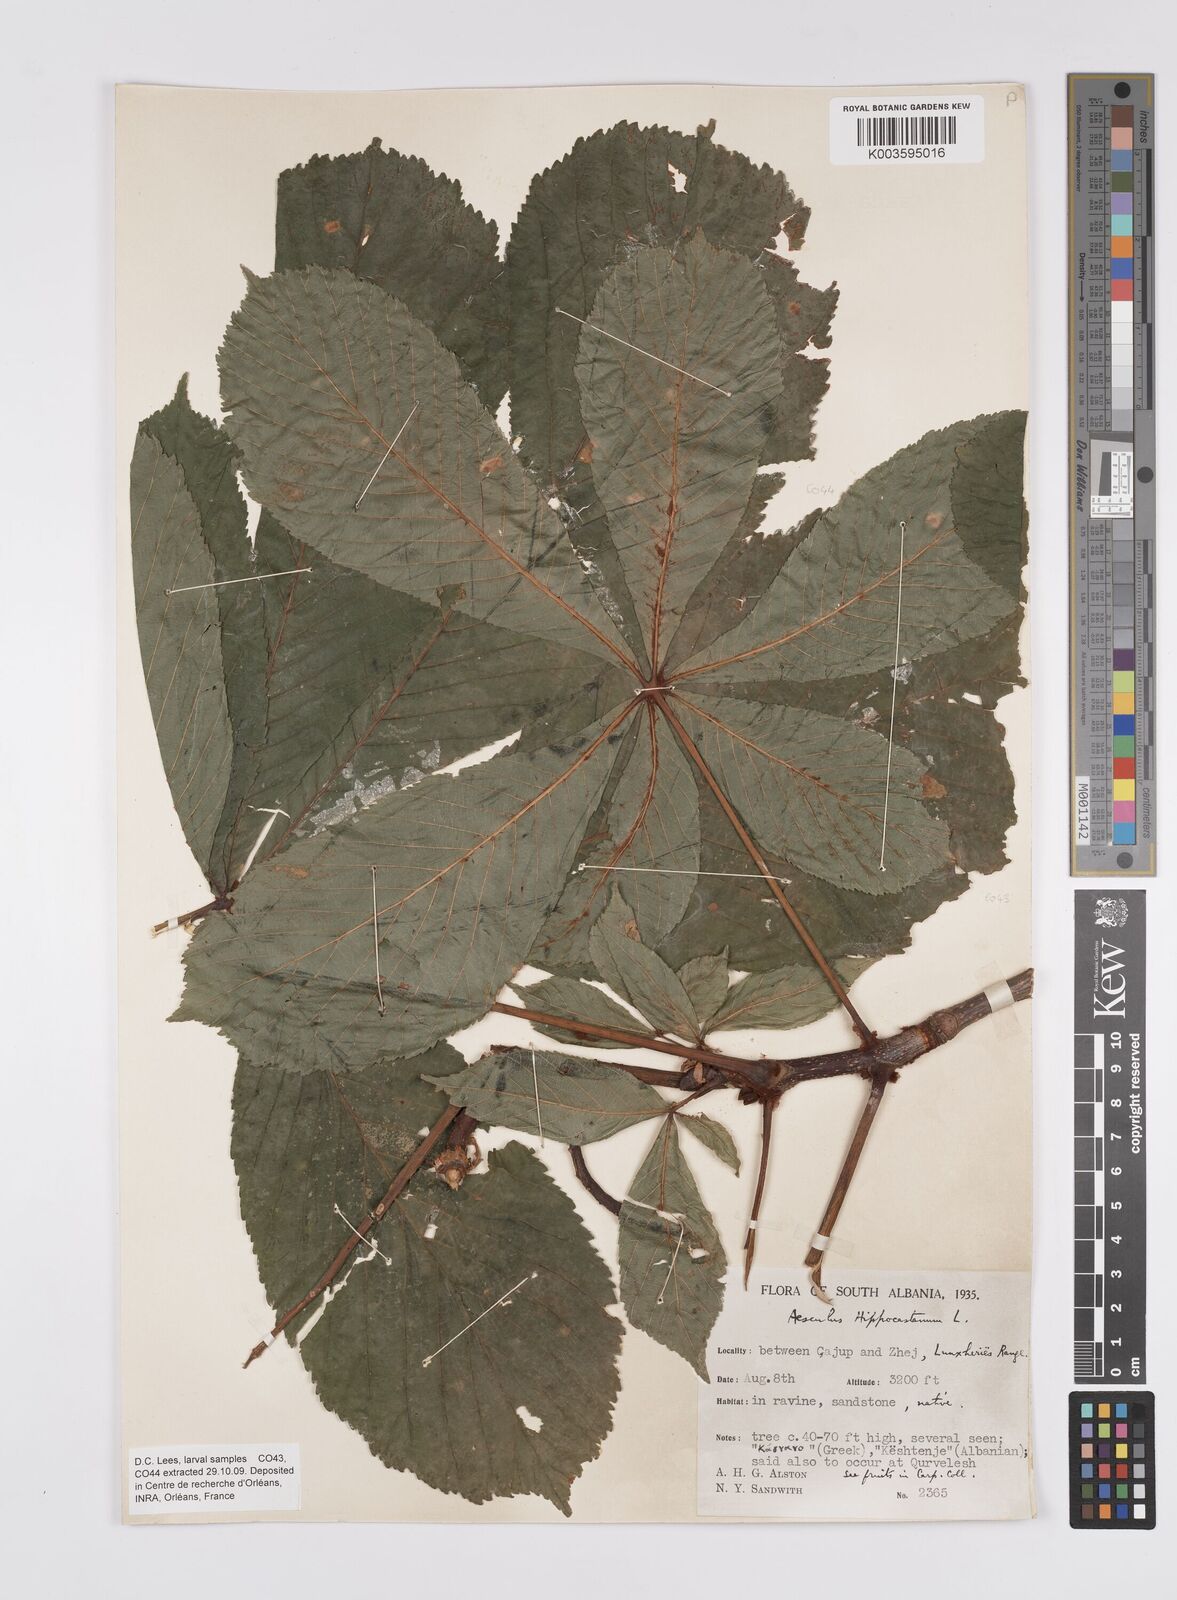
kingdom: Plantae
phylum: Tracheophyta
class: Magnoliopsida
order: Sapindales
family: Sapindaceae
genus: Aesculus
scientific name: Aesculus hippocastanum
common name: Horse-chestnut
